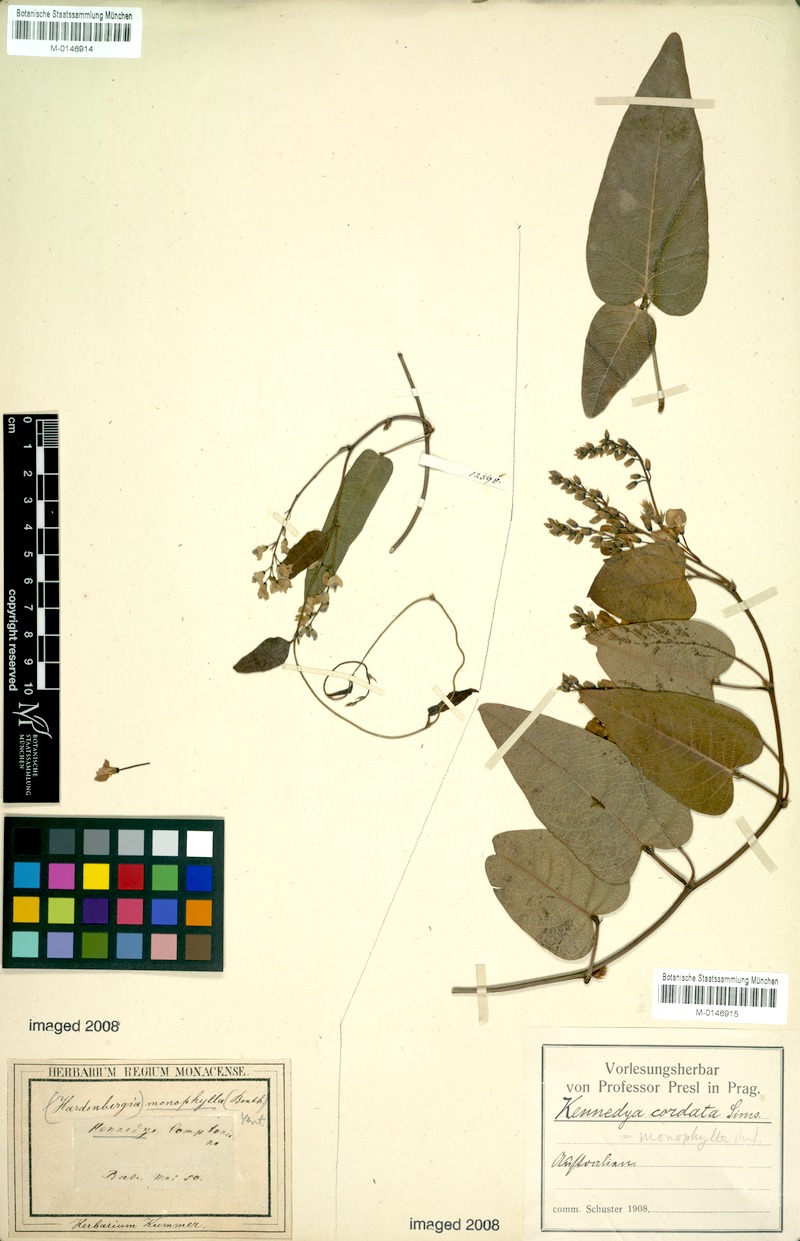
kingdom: Plantae
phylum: Tracheophyta
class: Magnoliopsida
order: Fabales
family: Fabaceae
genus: Hardenbergia
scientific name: Hardenbergia violacea
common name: Coral-pea
